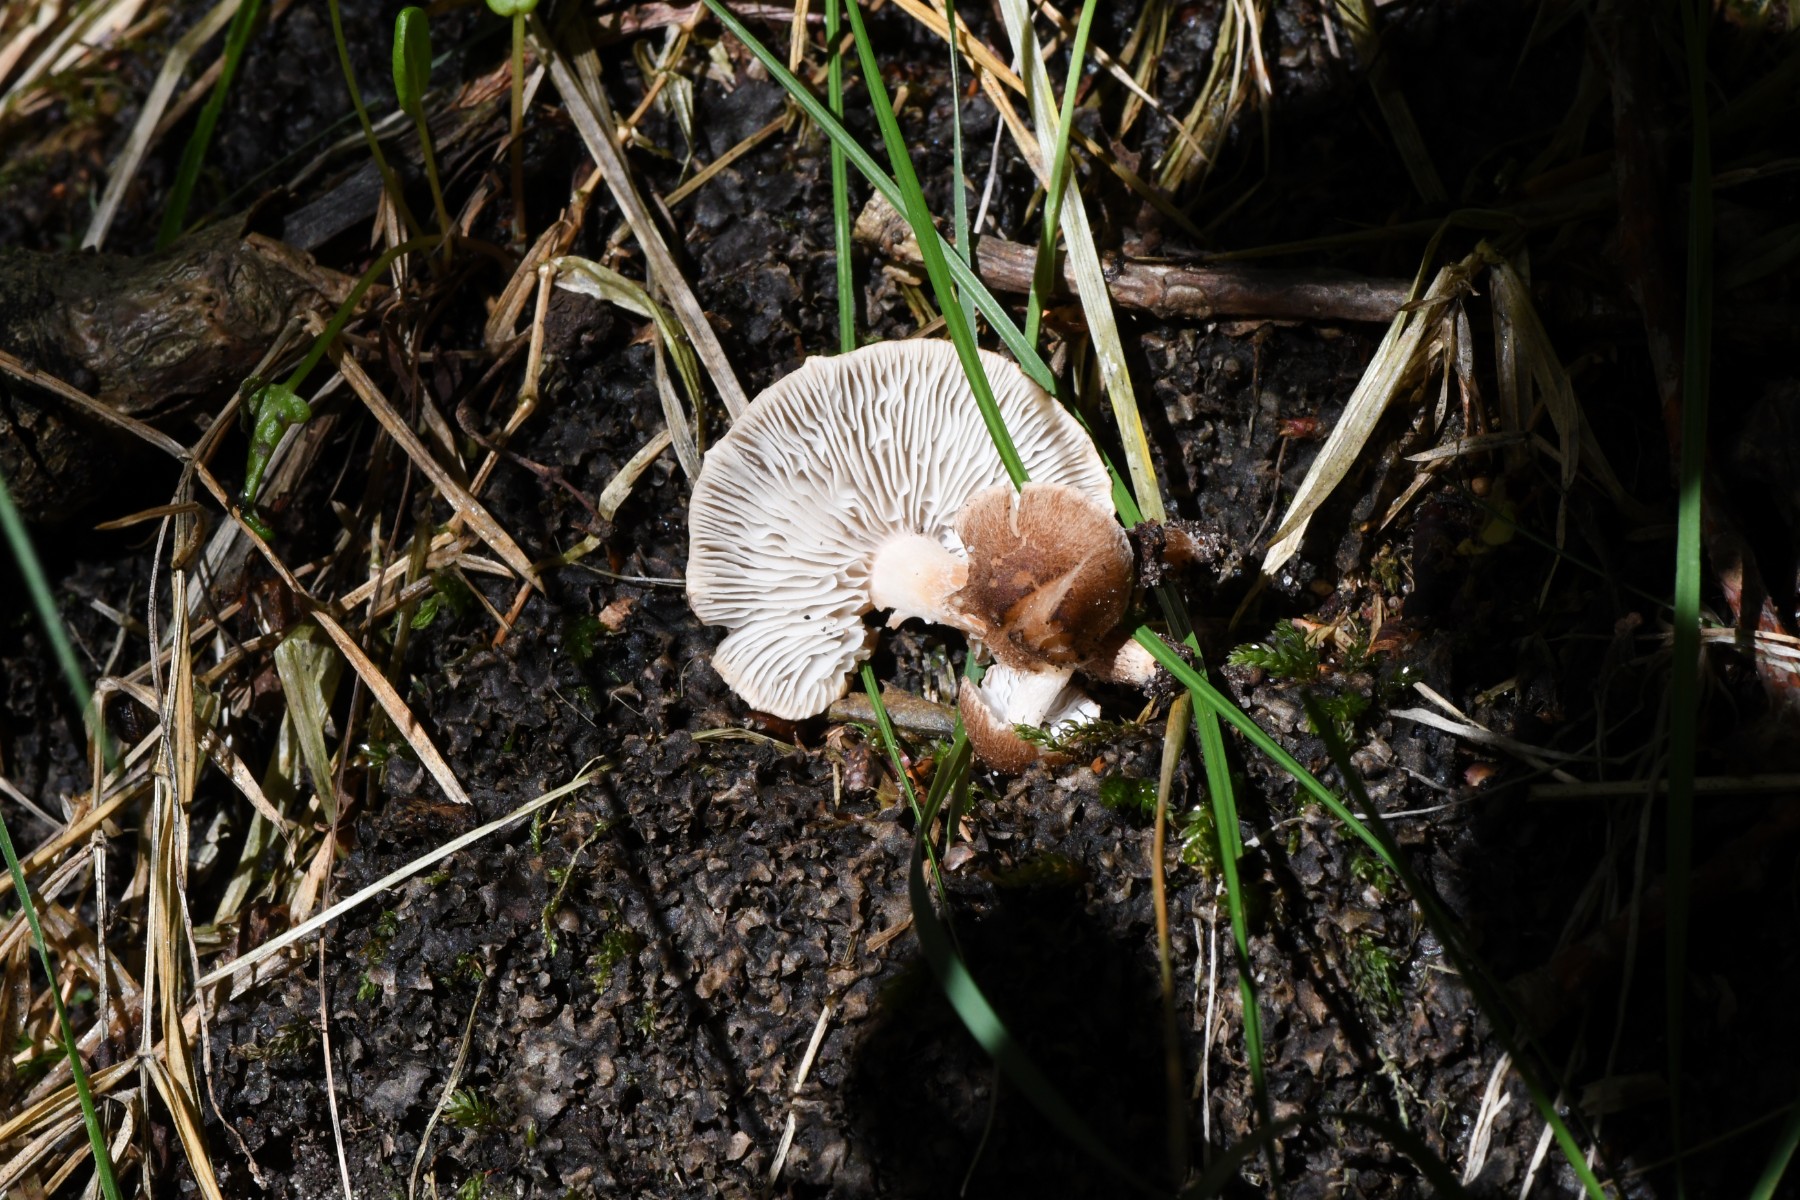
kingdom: Fungi
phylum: Basidiomycota
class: Agaricomycetes
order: Agaricales
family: Inocybaceae
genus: Inocybe
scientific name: Inocybe
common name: trævlhat
